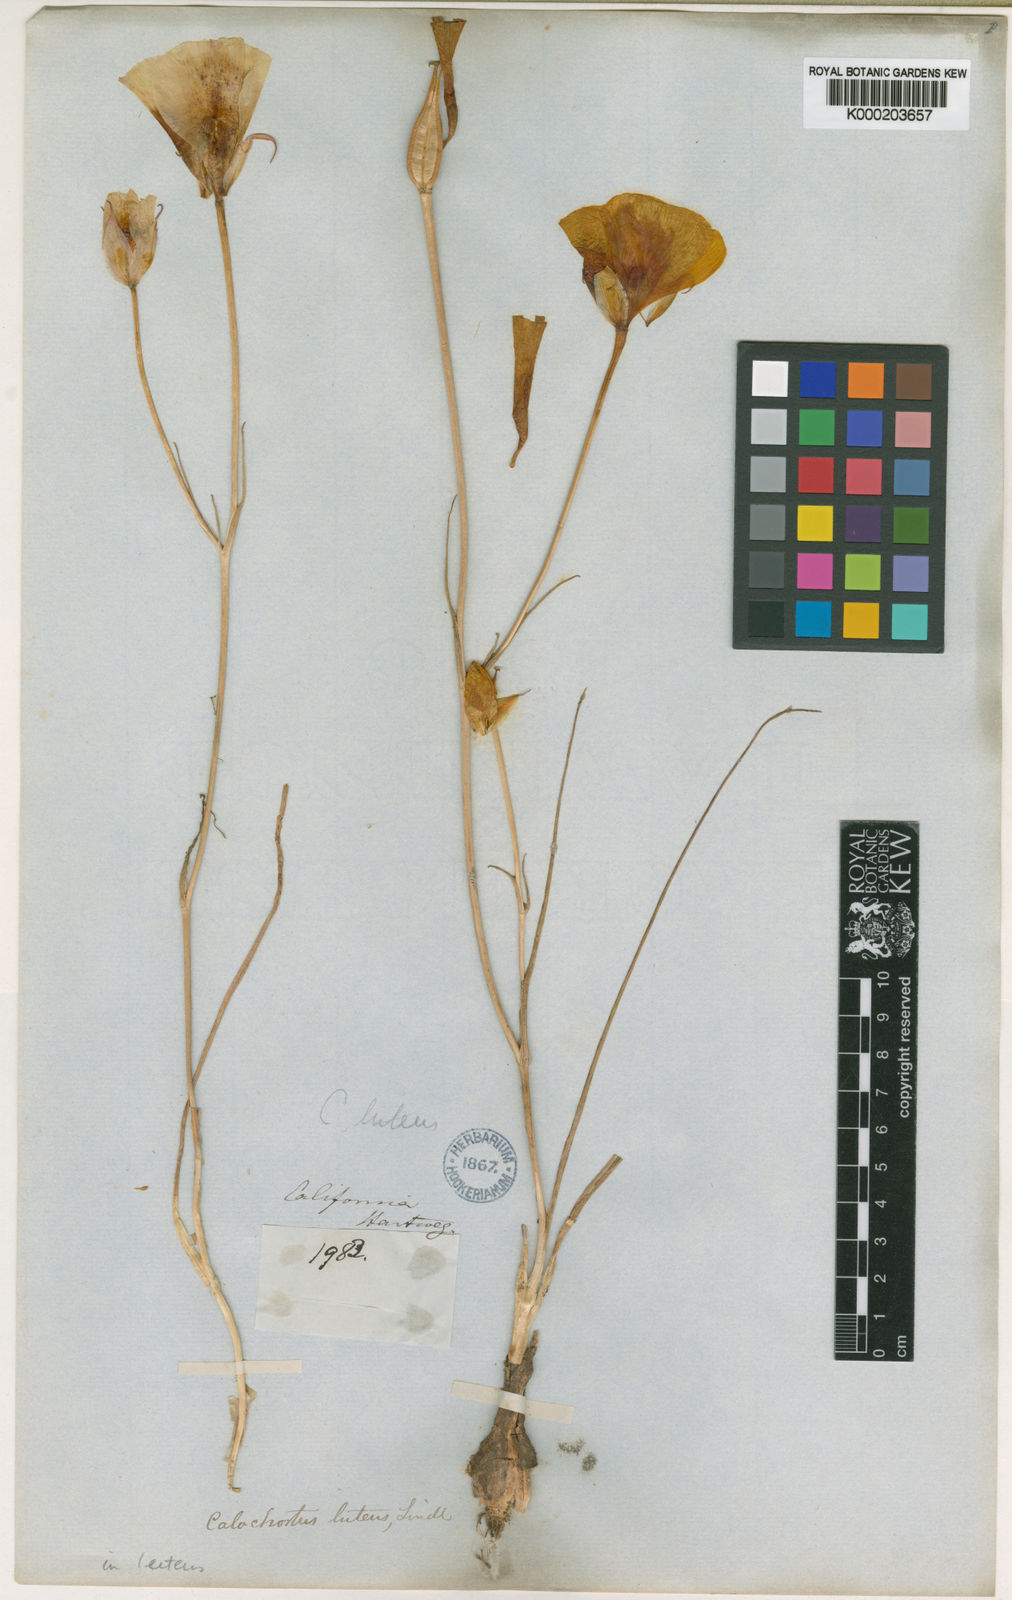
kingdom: Plantae
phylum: Tracheophyta
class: Liliopsida
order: Liliales
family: Liliaceae
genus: Calochortus
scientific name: Calochortus luteus
